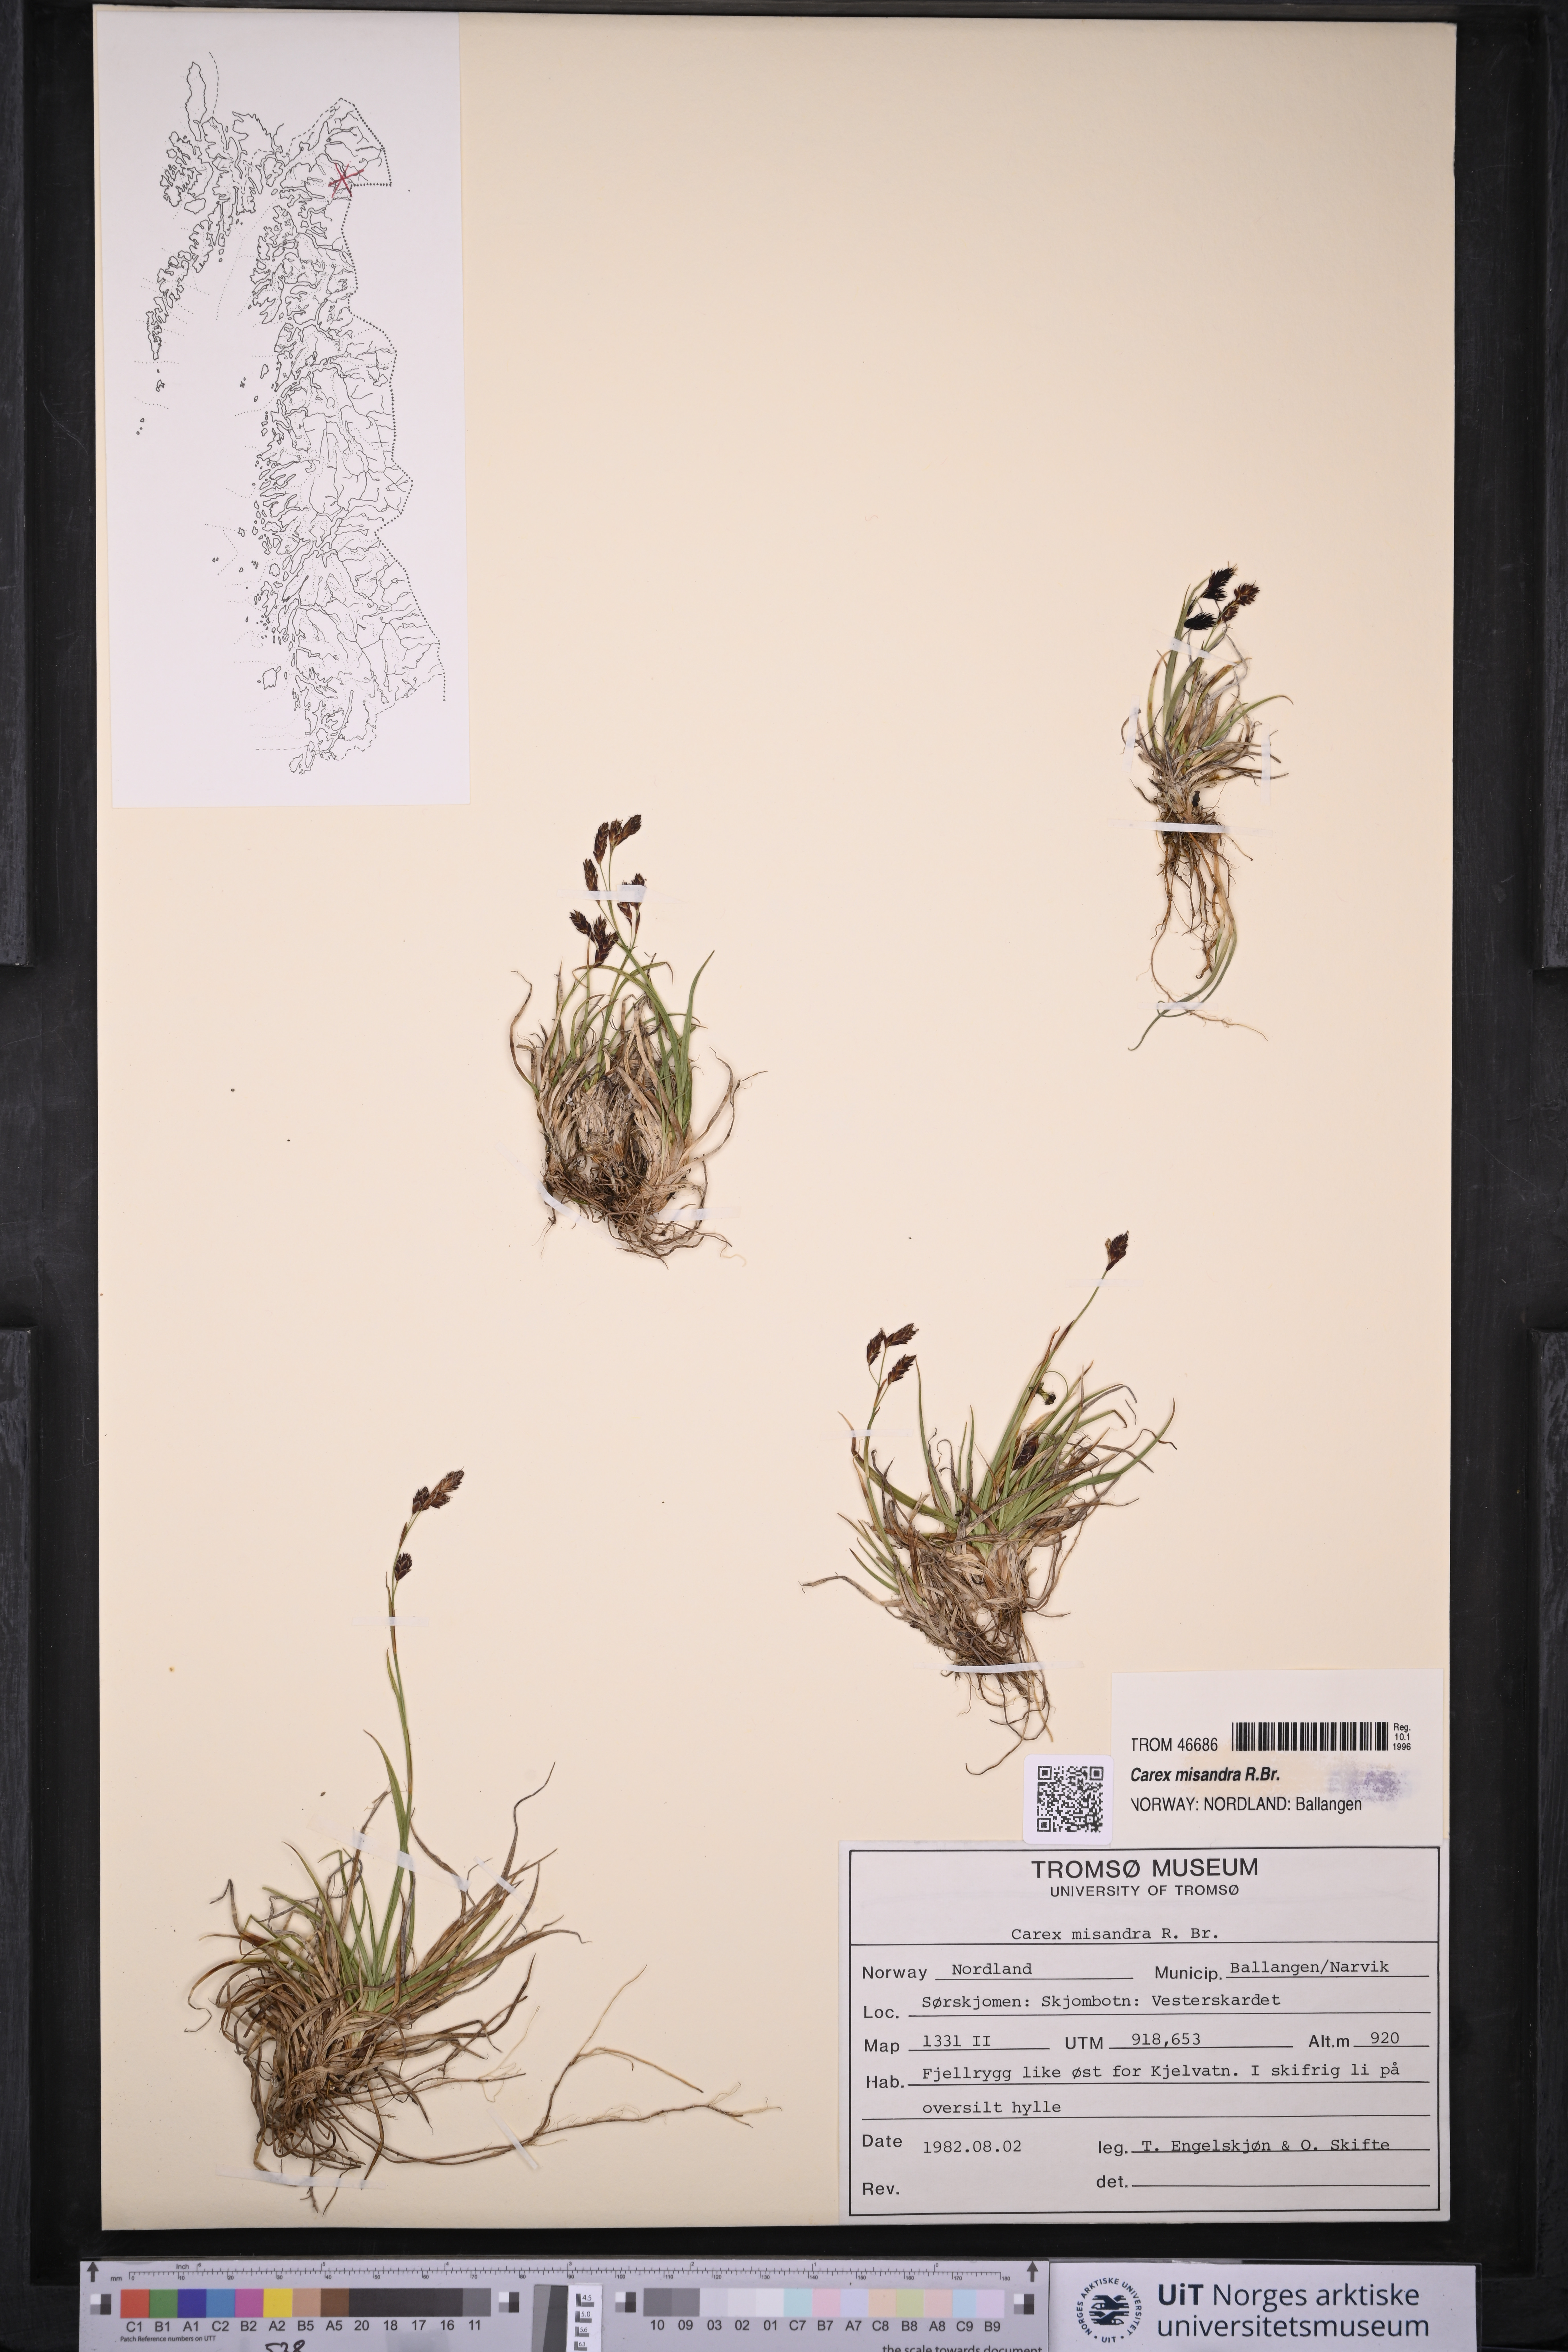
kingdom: Plantae
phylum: Tracheophyta
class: Liliopsida
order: Poales
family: Cyperaceae
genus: Carex
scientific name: Carex fuliginosa
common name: Few-flowered sedge
